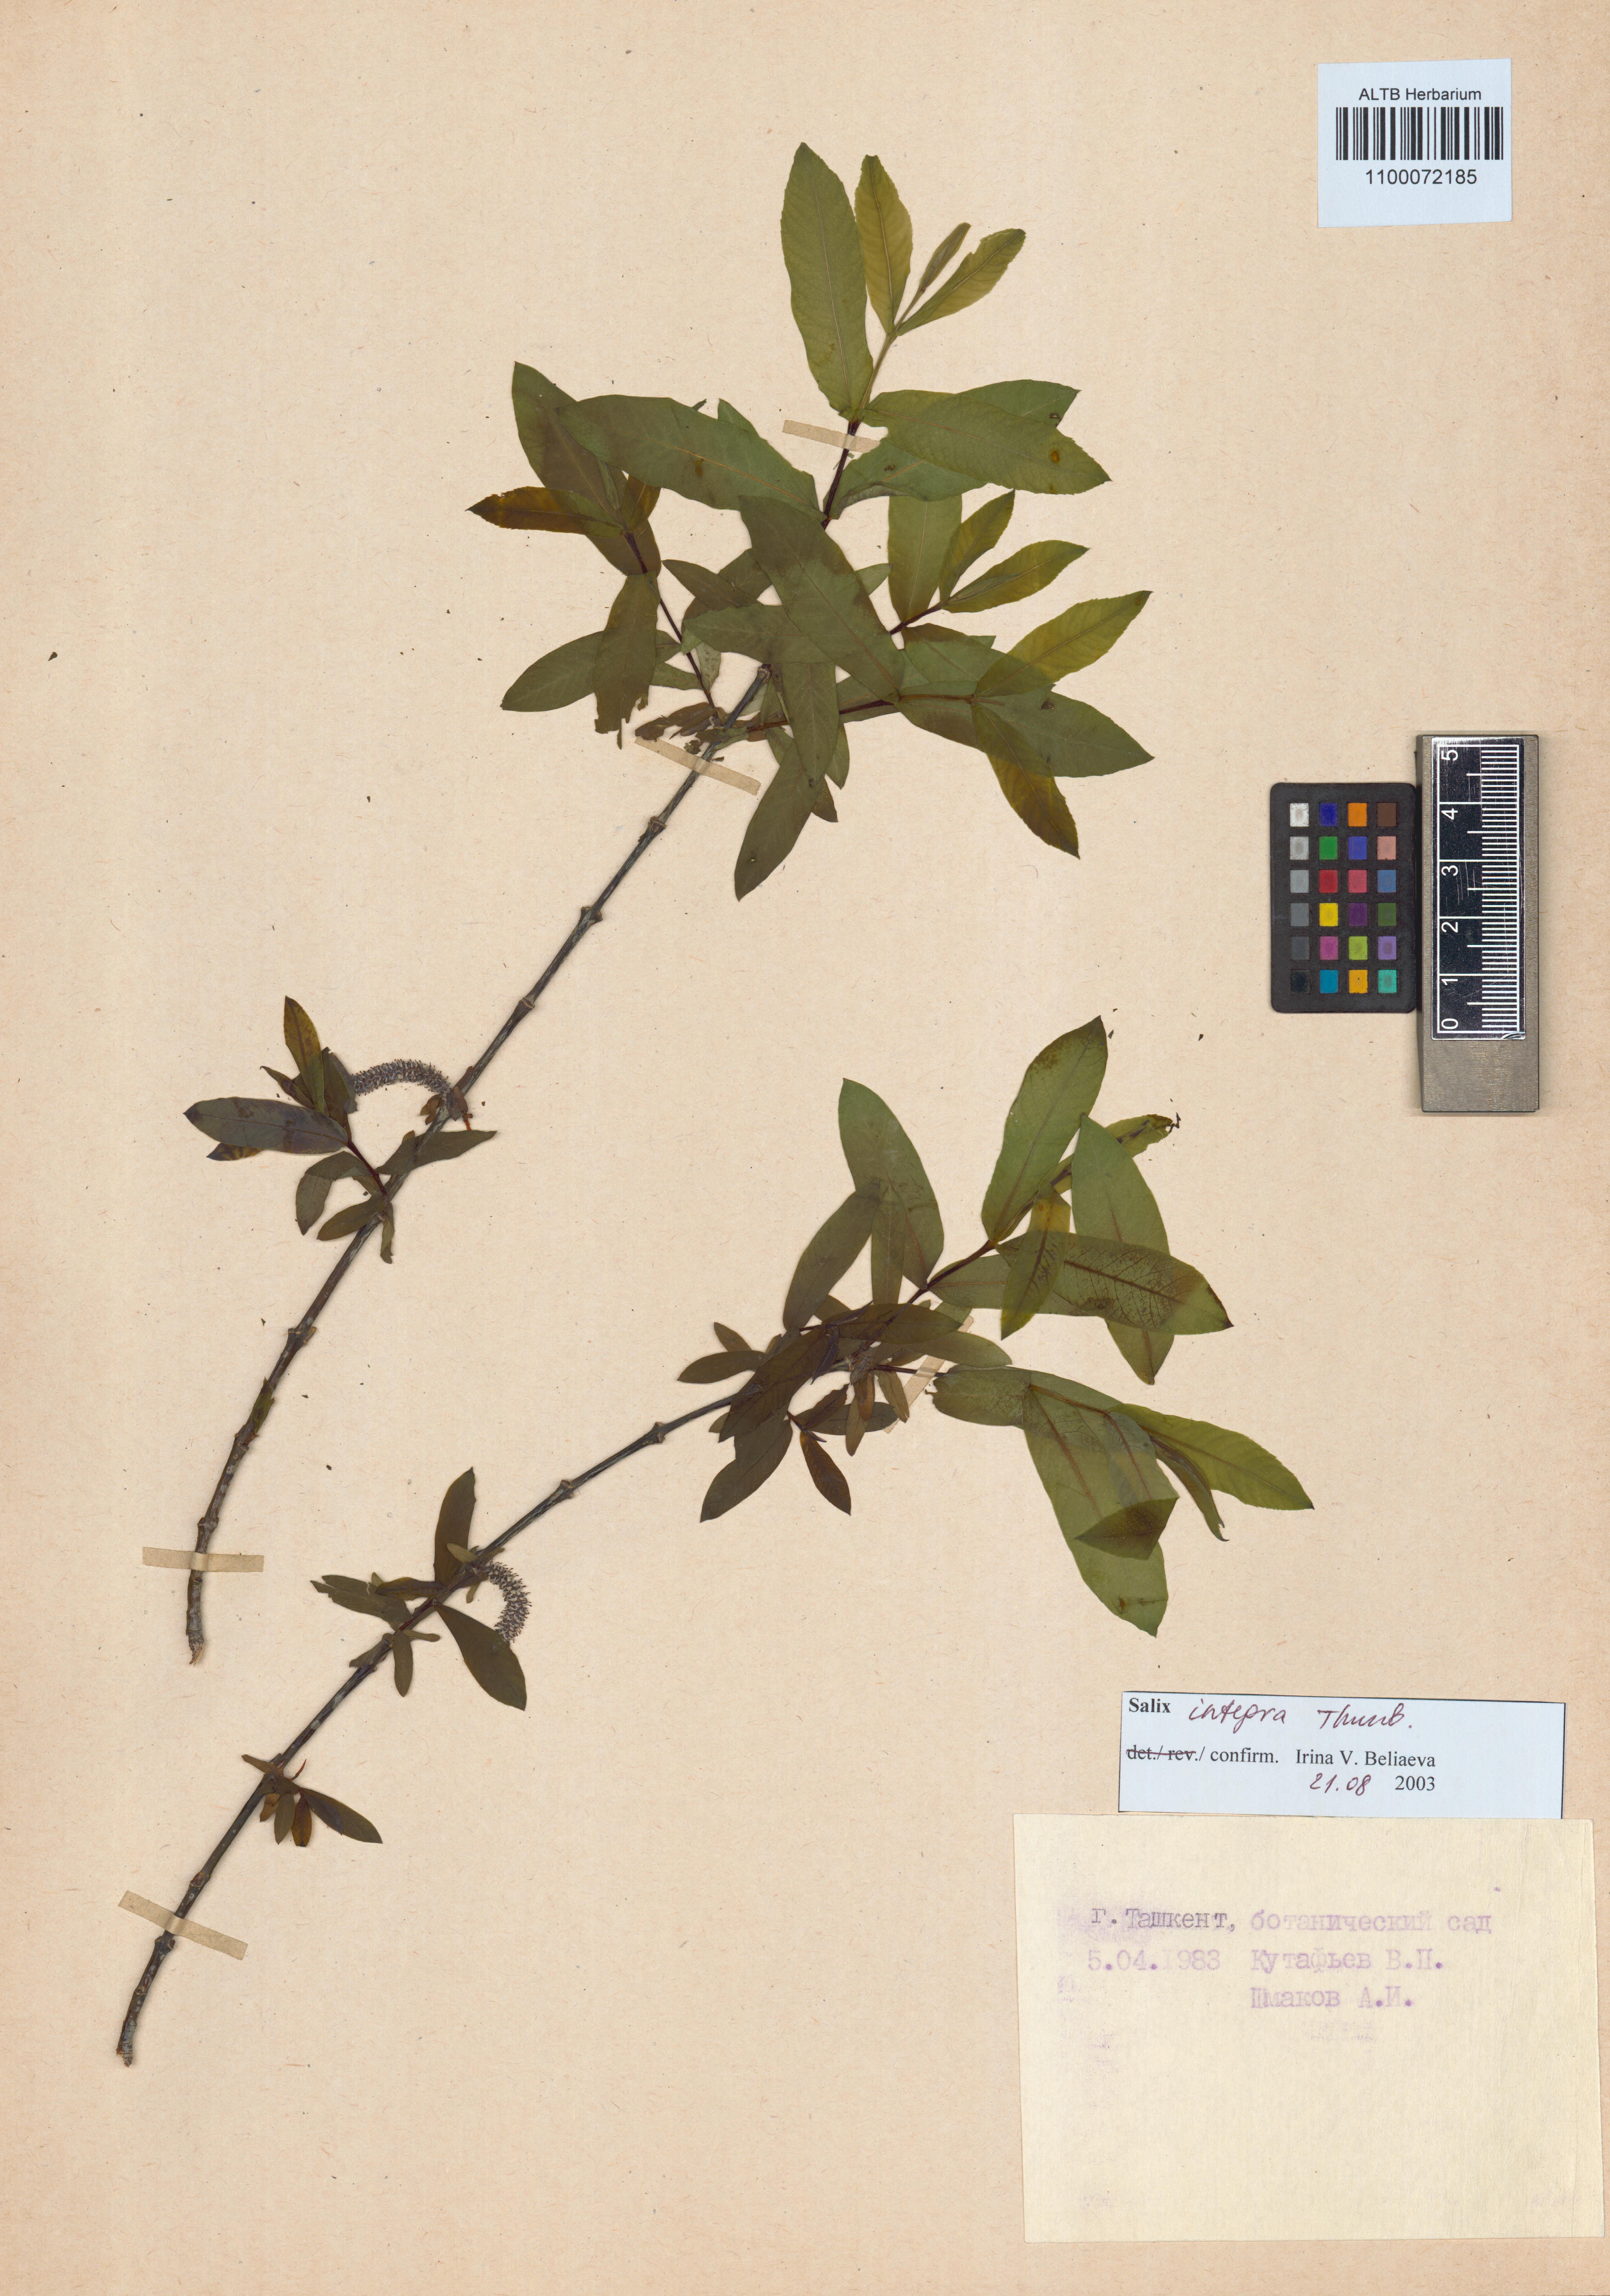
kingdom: Plantae
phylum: Tracheophyta
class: Magnoliopsida
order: Malpighiales
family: Salicaceae
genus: Salix
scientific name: Salix integra
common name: Dappled willow
